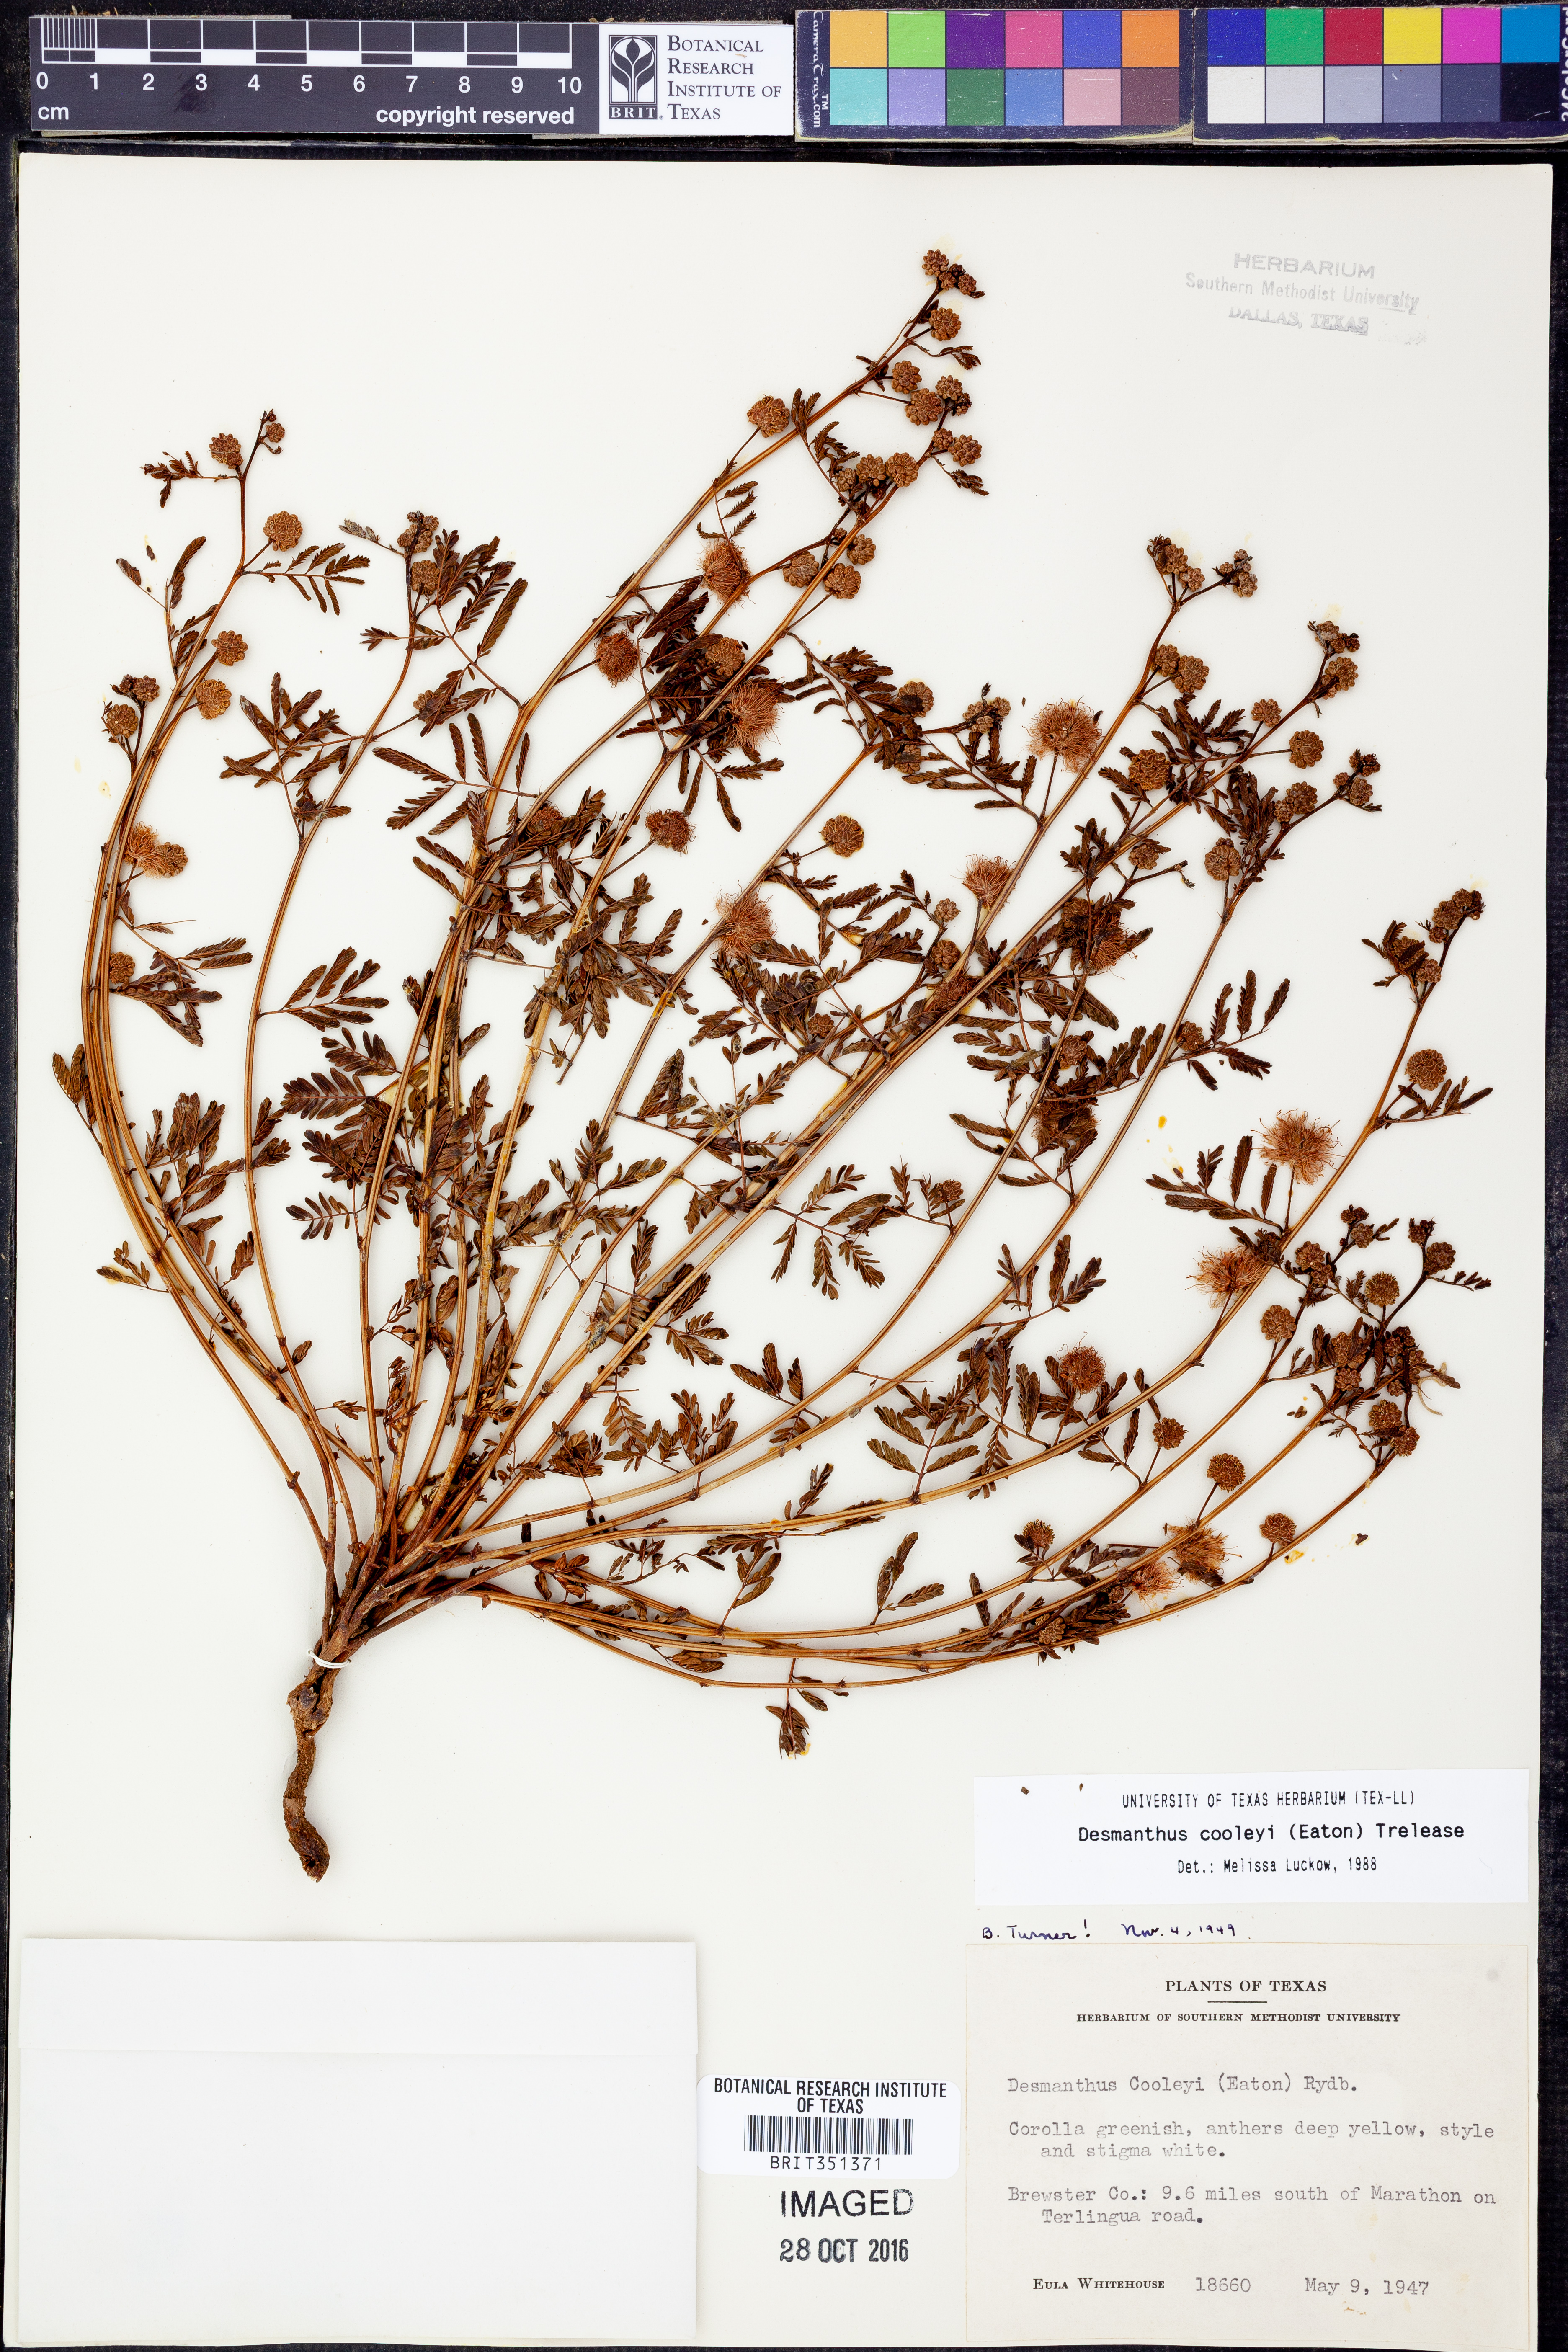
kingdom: Plantae
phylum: Tracheophyta
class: Magnoliopsida
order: Fabales
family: Fabaceae
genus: Desmanthus
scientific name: Desmanthus cooleyi
